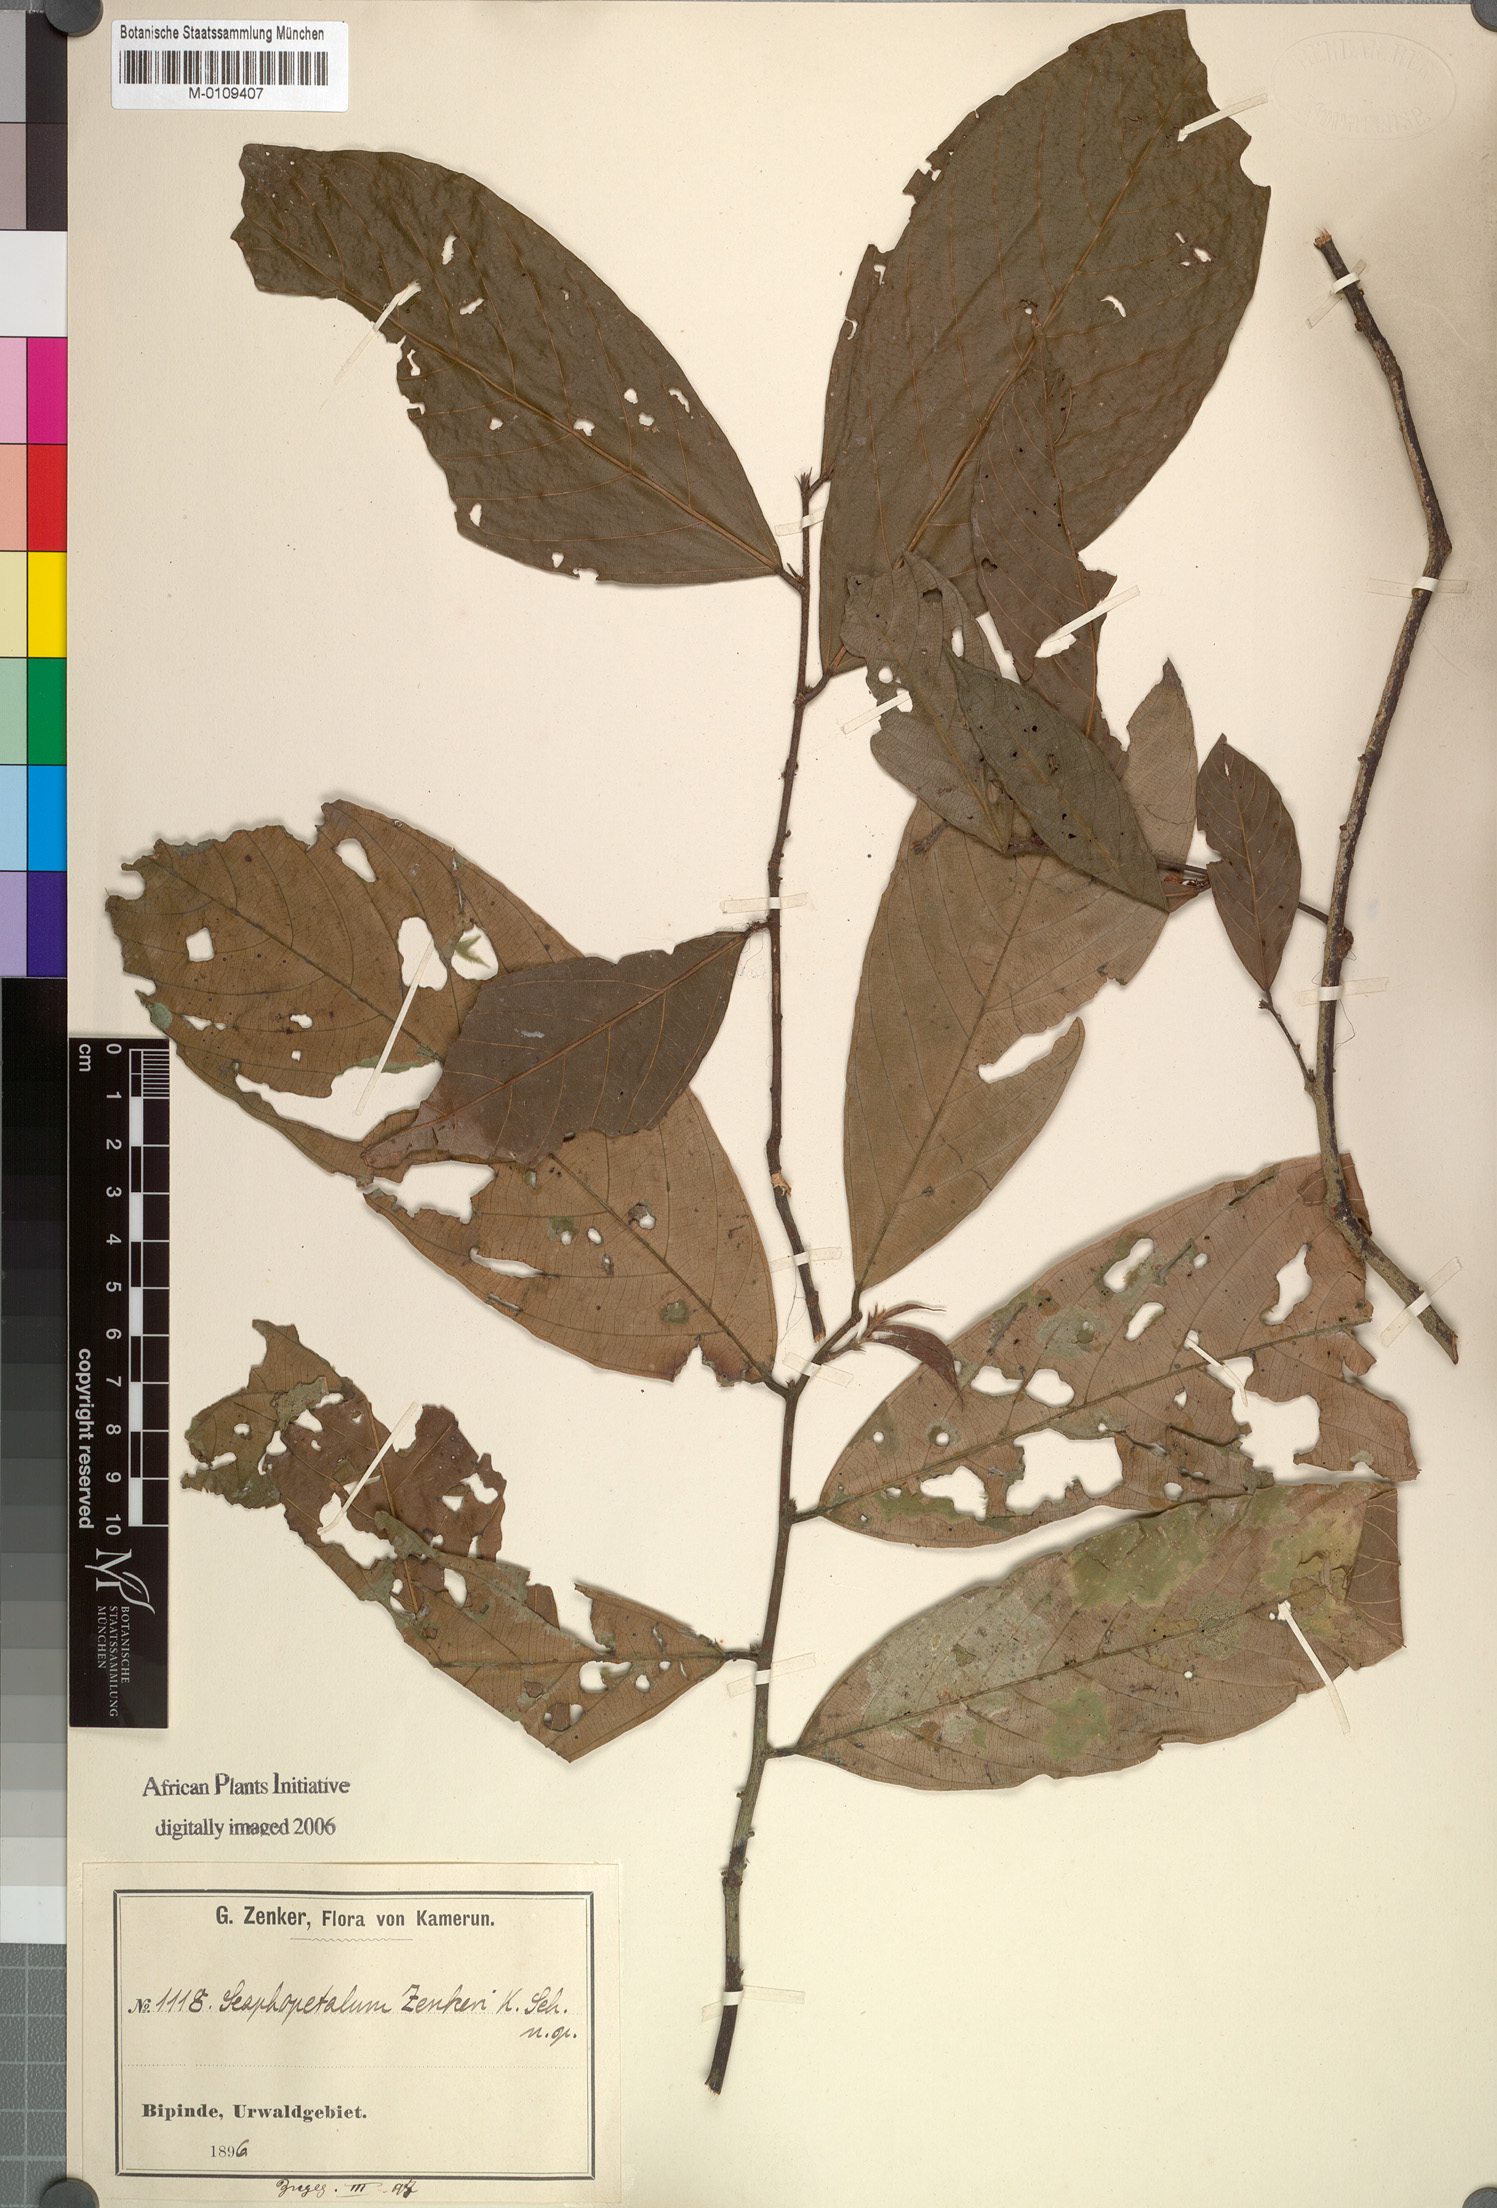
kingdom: Plantae
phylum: Tracheophyta
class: Magnoliopsida
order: Malvales
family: Malvaceae
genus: Scaphopetalum
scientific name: Scaphopetalum zenkeri
